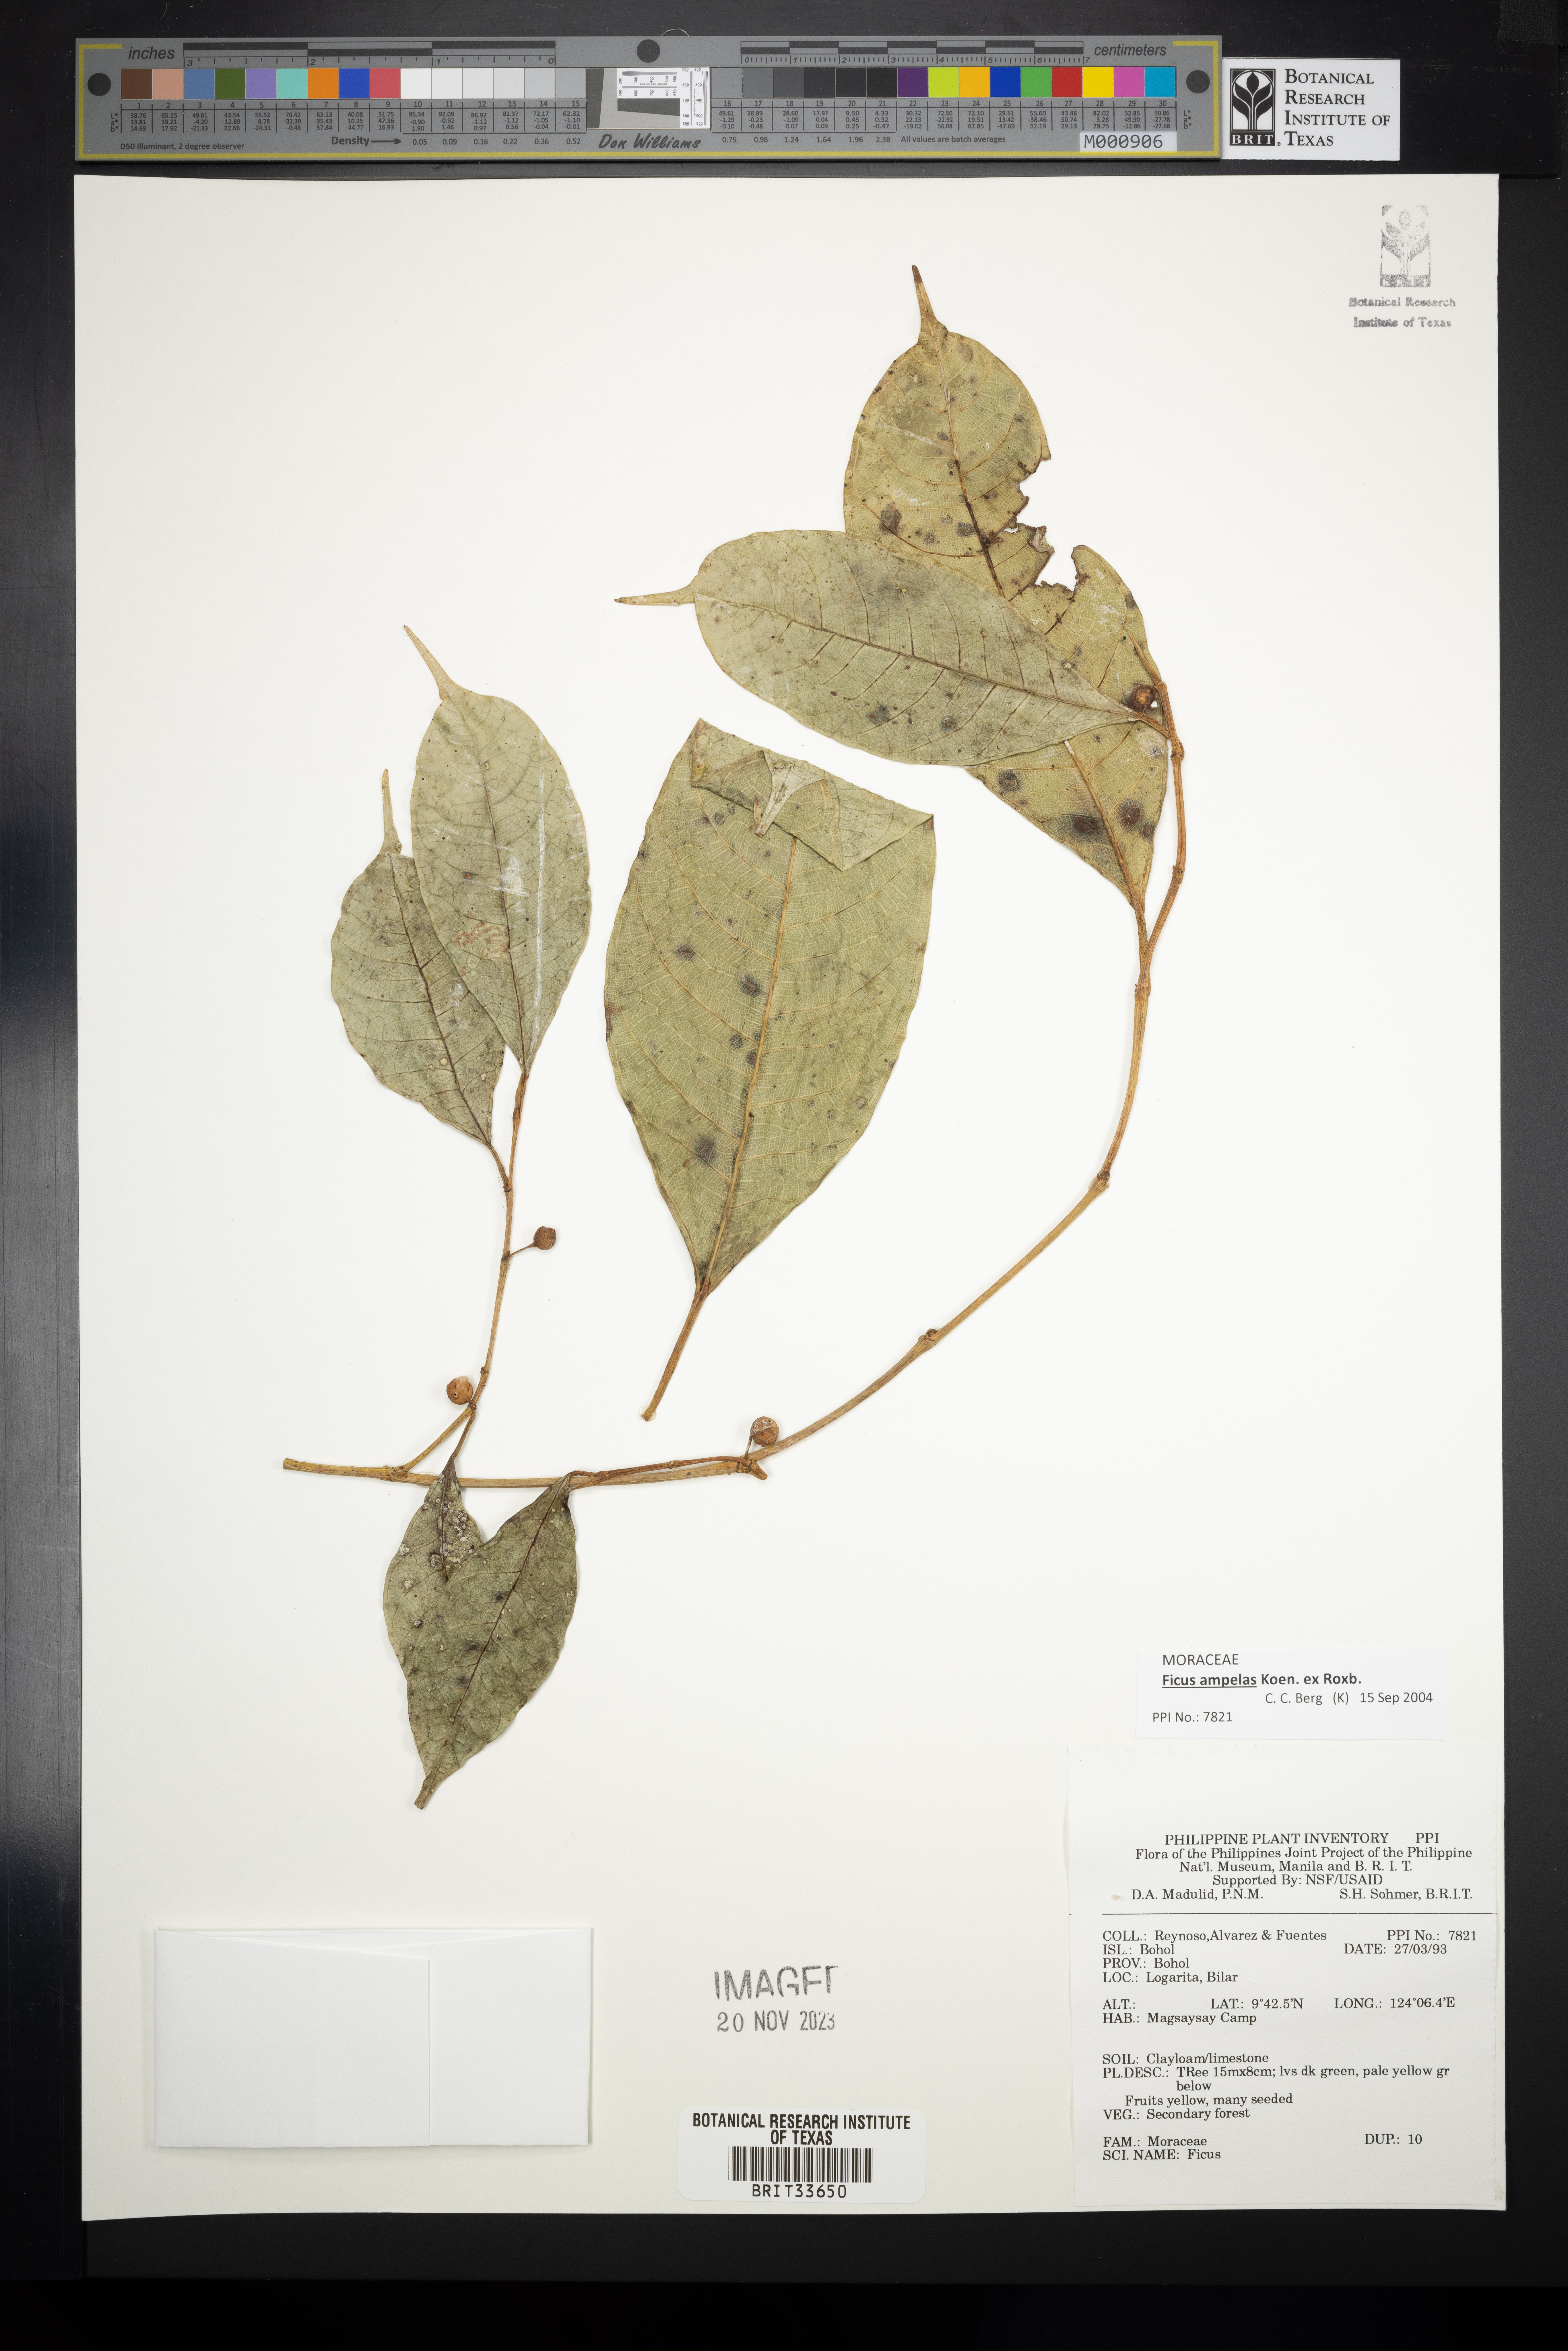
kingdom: Plantae
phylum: Tracheophyta
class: Magnoliopsida
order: Rosales
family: Moraceae
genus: Ficus
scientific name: Ficus
